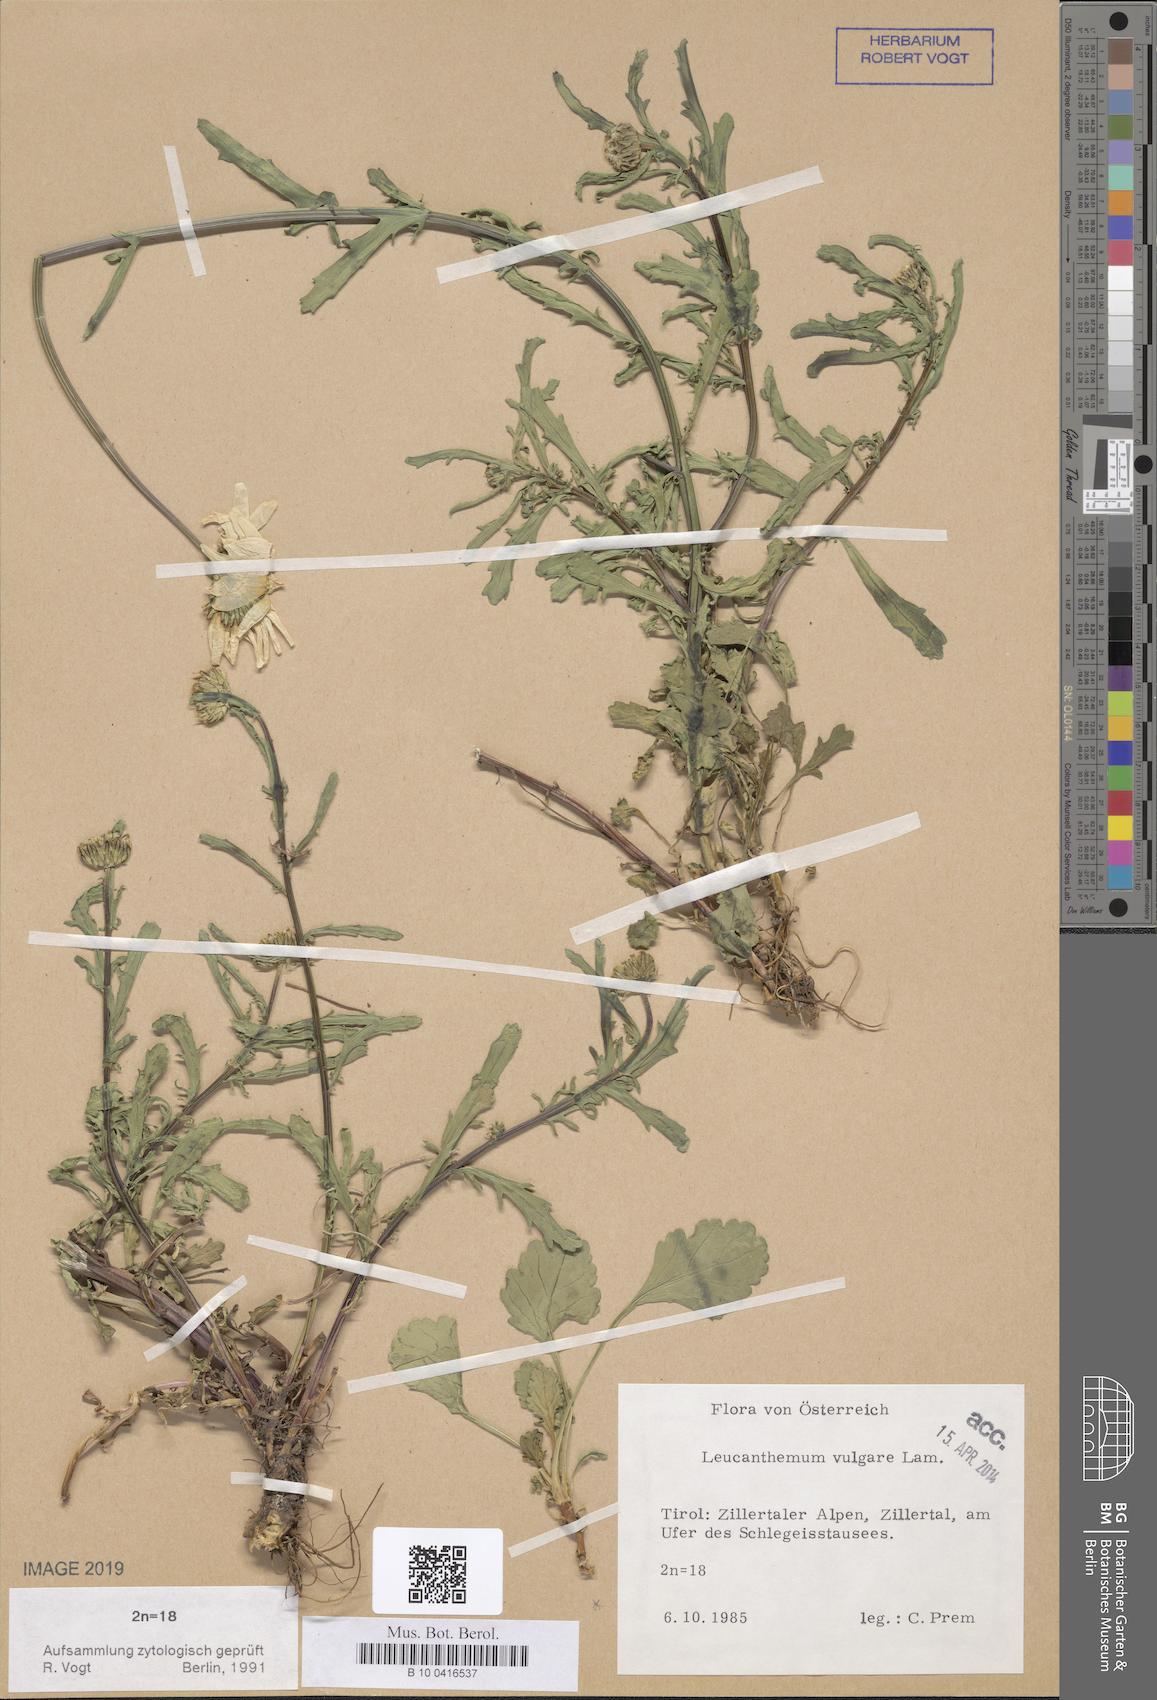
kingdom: Plantae
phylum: Tracheophyta
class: Magnoliopsida
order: Asterales
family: Asteraceae
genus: Leucanthemum
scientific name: Leucanthemum vulgare
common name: Oxeye daisy
